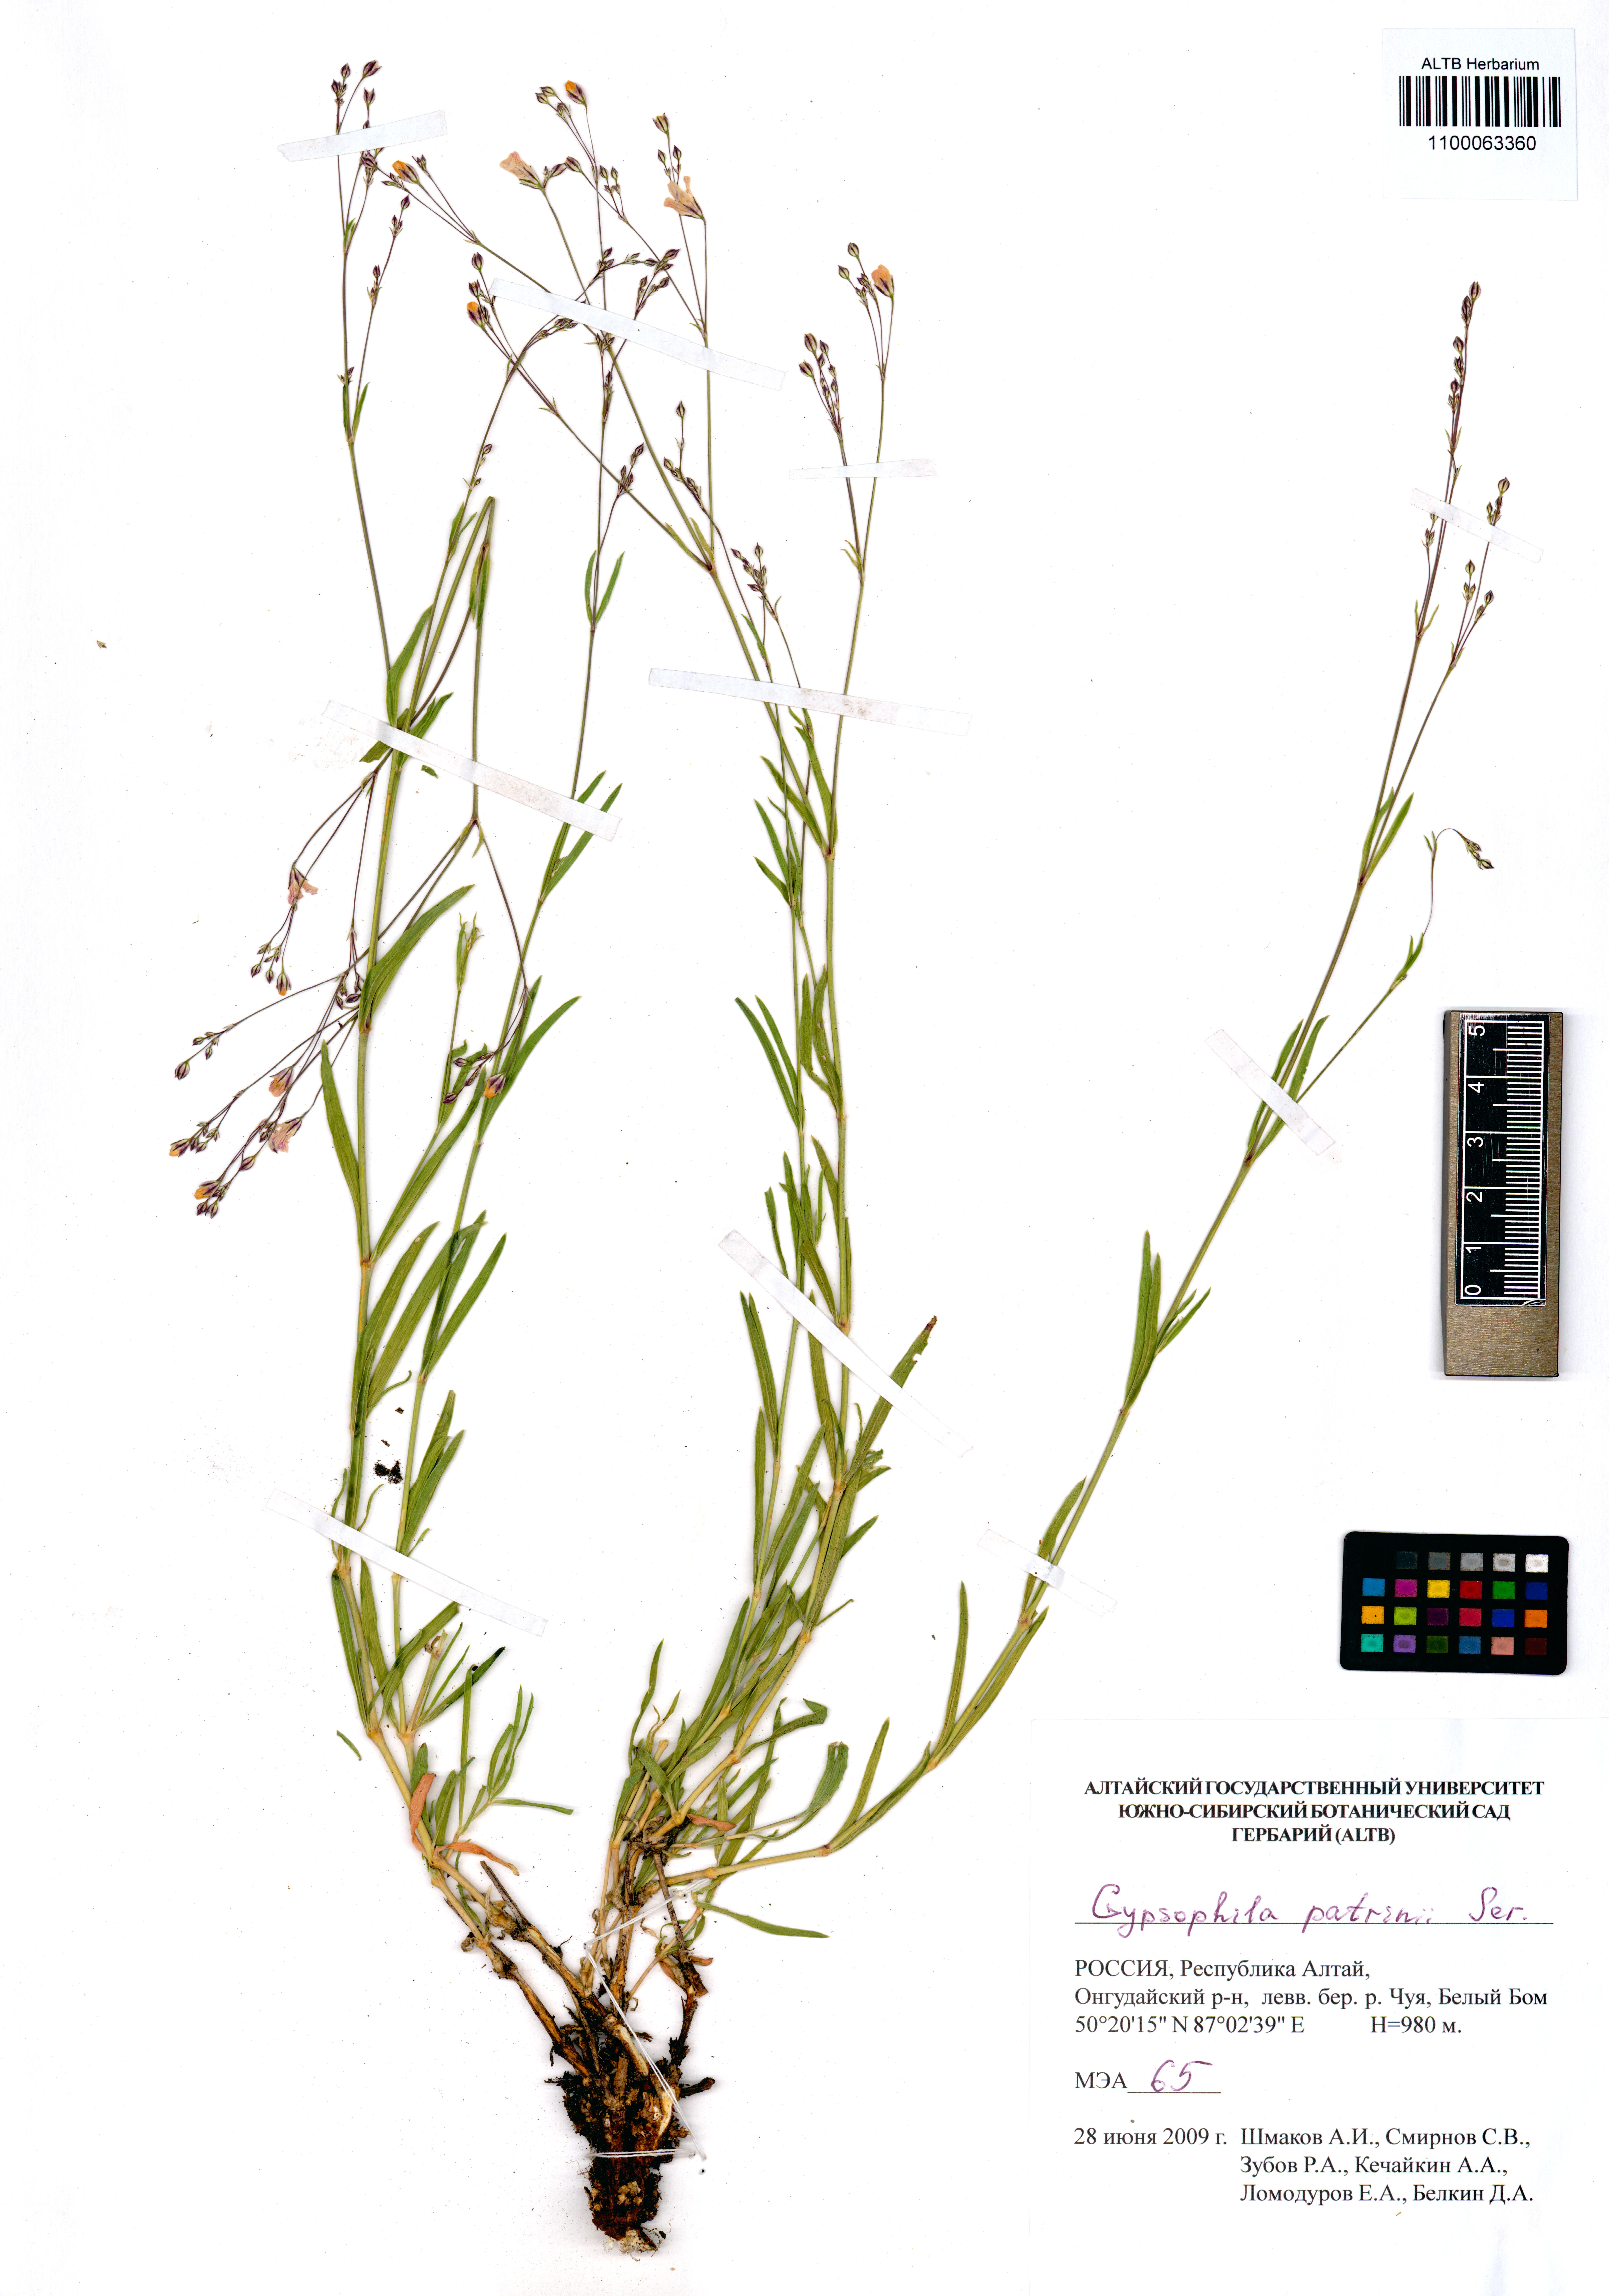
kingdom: Plantae
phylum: Tracheophyta
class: Magnoliopsida
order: Caryophyllales
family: Caryophyllaceae
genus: Gypsophila
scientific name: Gypsophila patrinii
